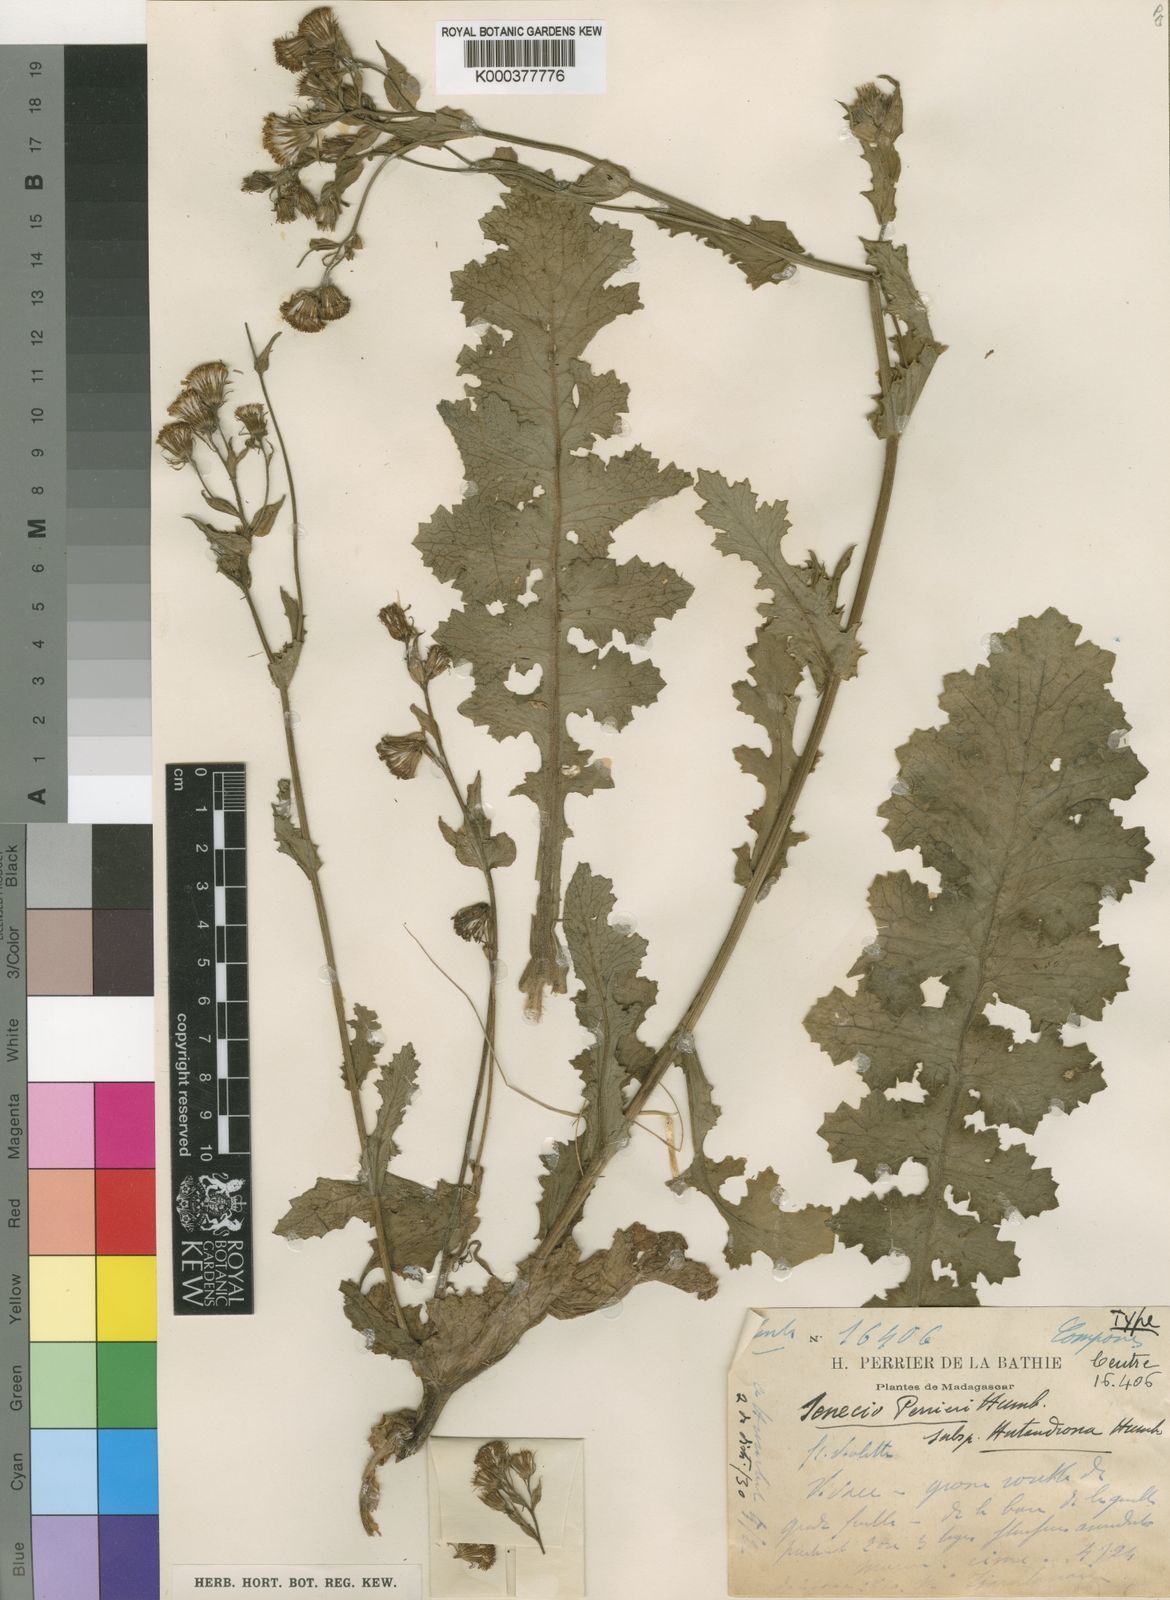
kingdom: Plantae
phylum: Tracheophyta
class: Magnoliopsida
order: Asterales
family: Asteraceae
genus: Senecio
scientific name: Senecio perrieri
